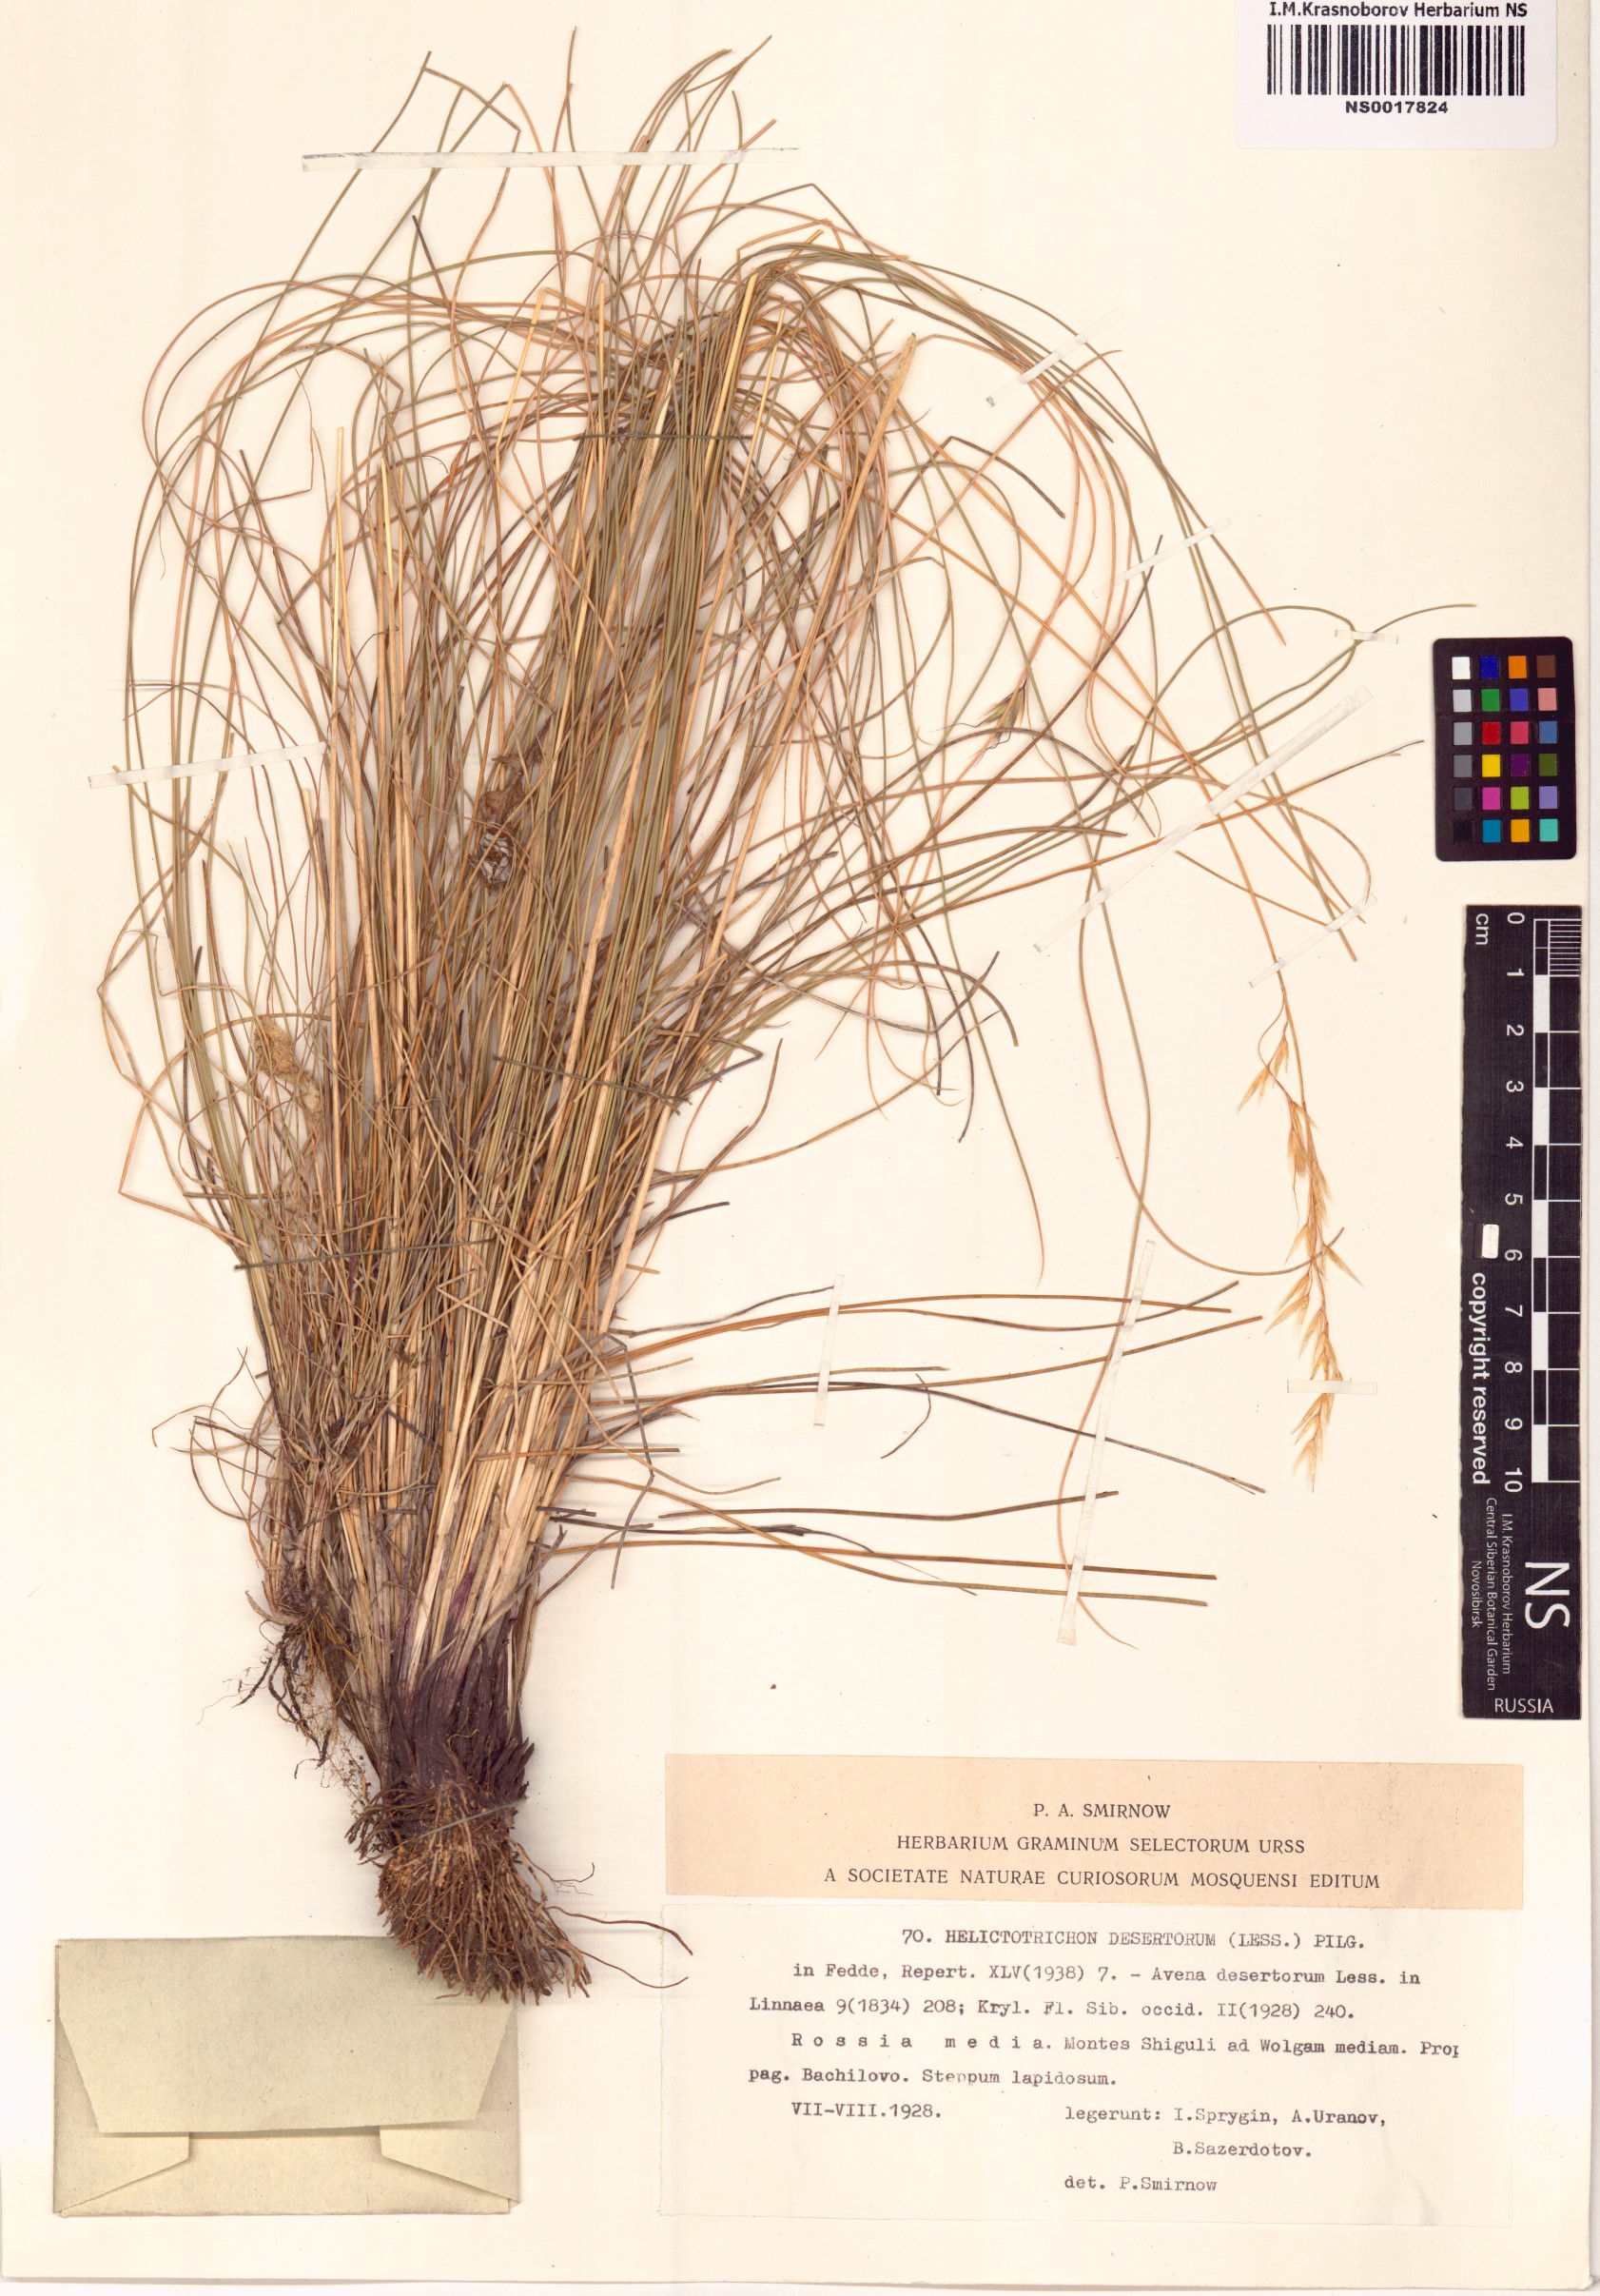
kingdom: Plantae
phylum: Tracheophyta
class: Liliopsida
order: Poales
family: Poaceae
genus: Helictotrichon
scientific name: Helictotrichon desertorum
